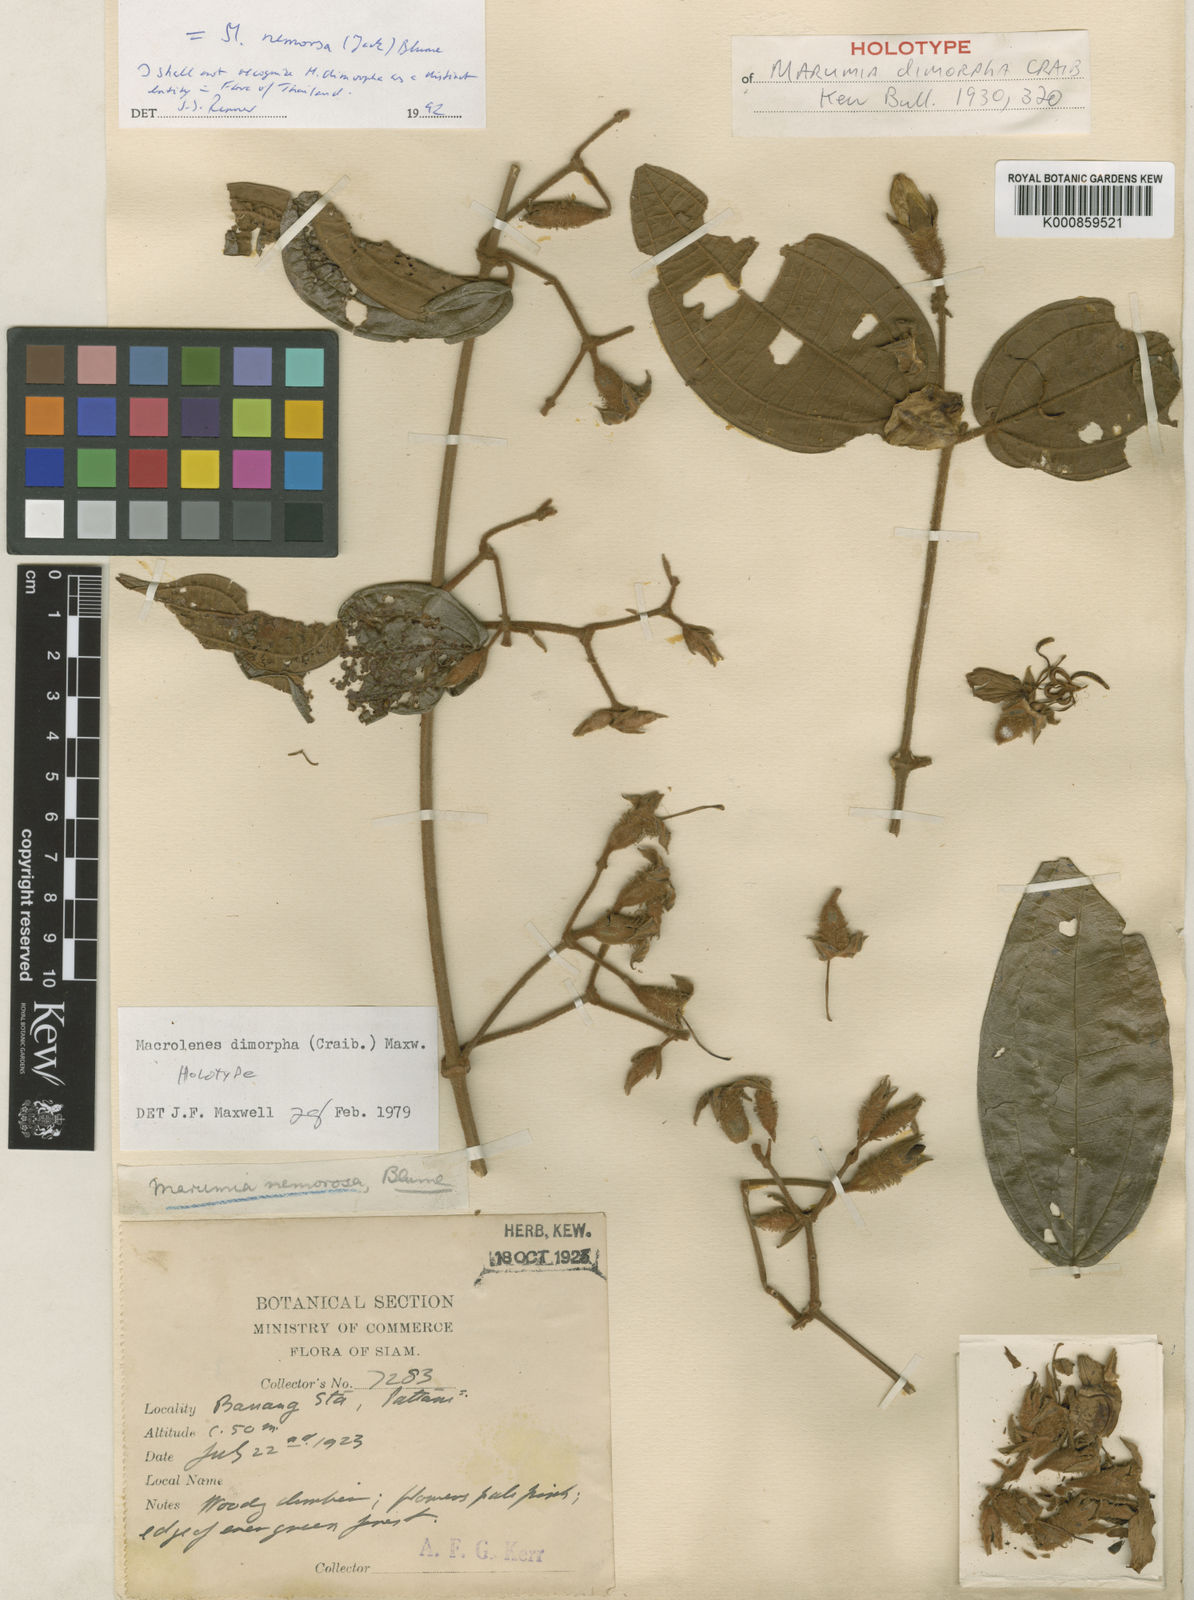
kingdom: Plantae
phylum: Tracheophyta
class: Magnoliopsida
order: Myrtales
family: Melastomataceae
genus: Macrolenes
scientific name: Macrolenes nemorosa
